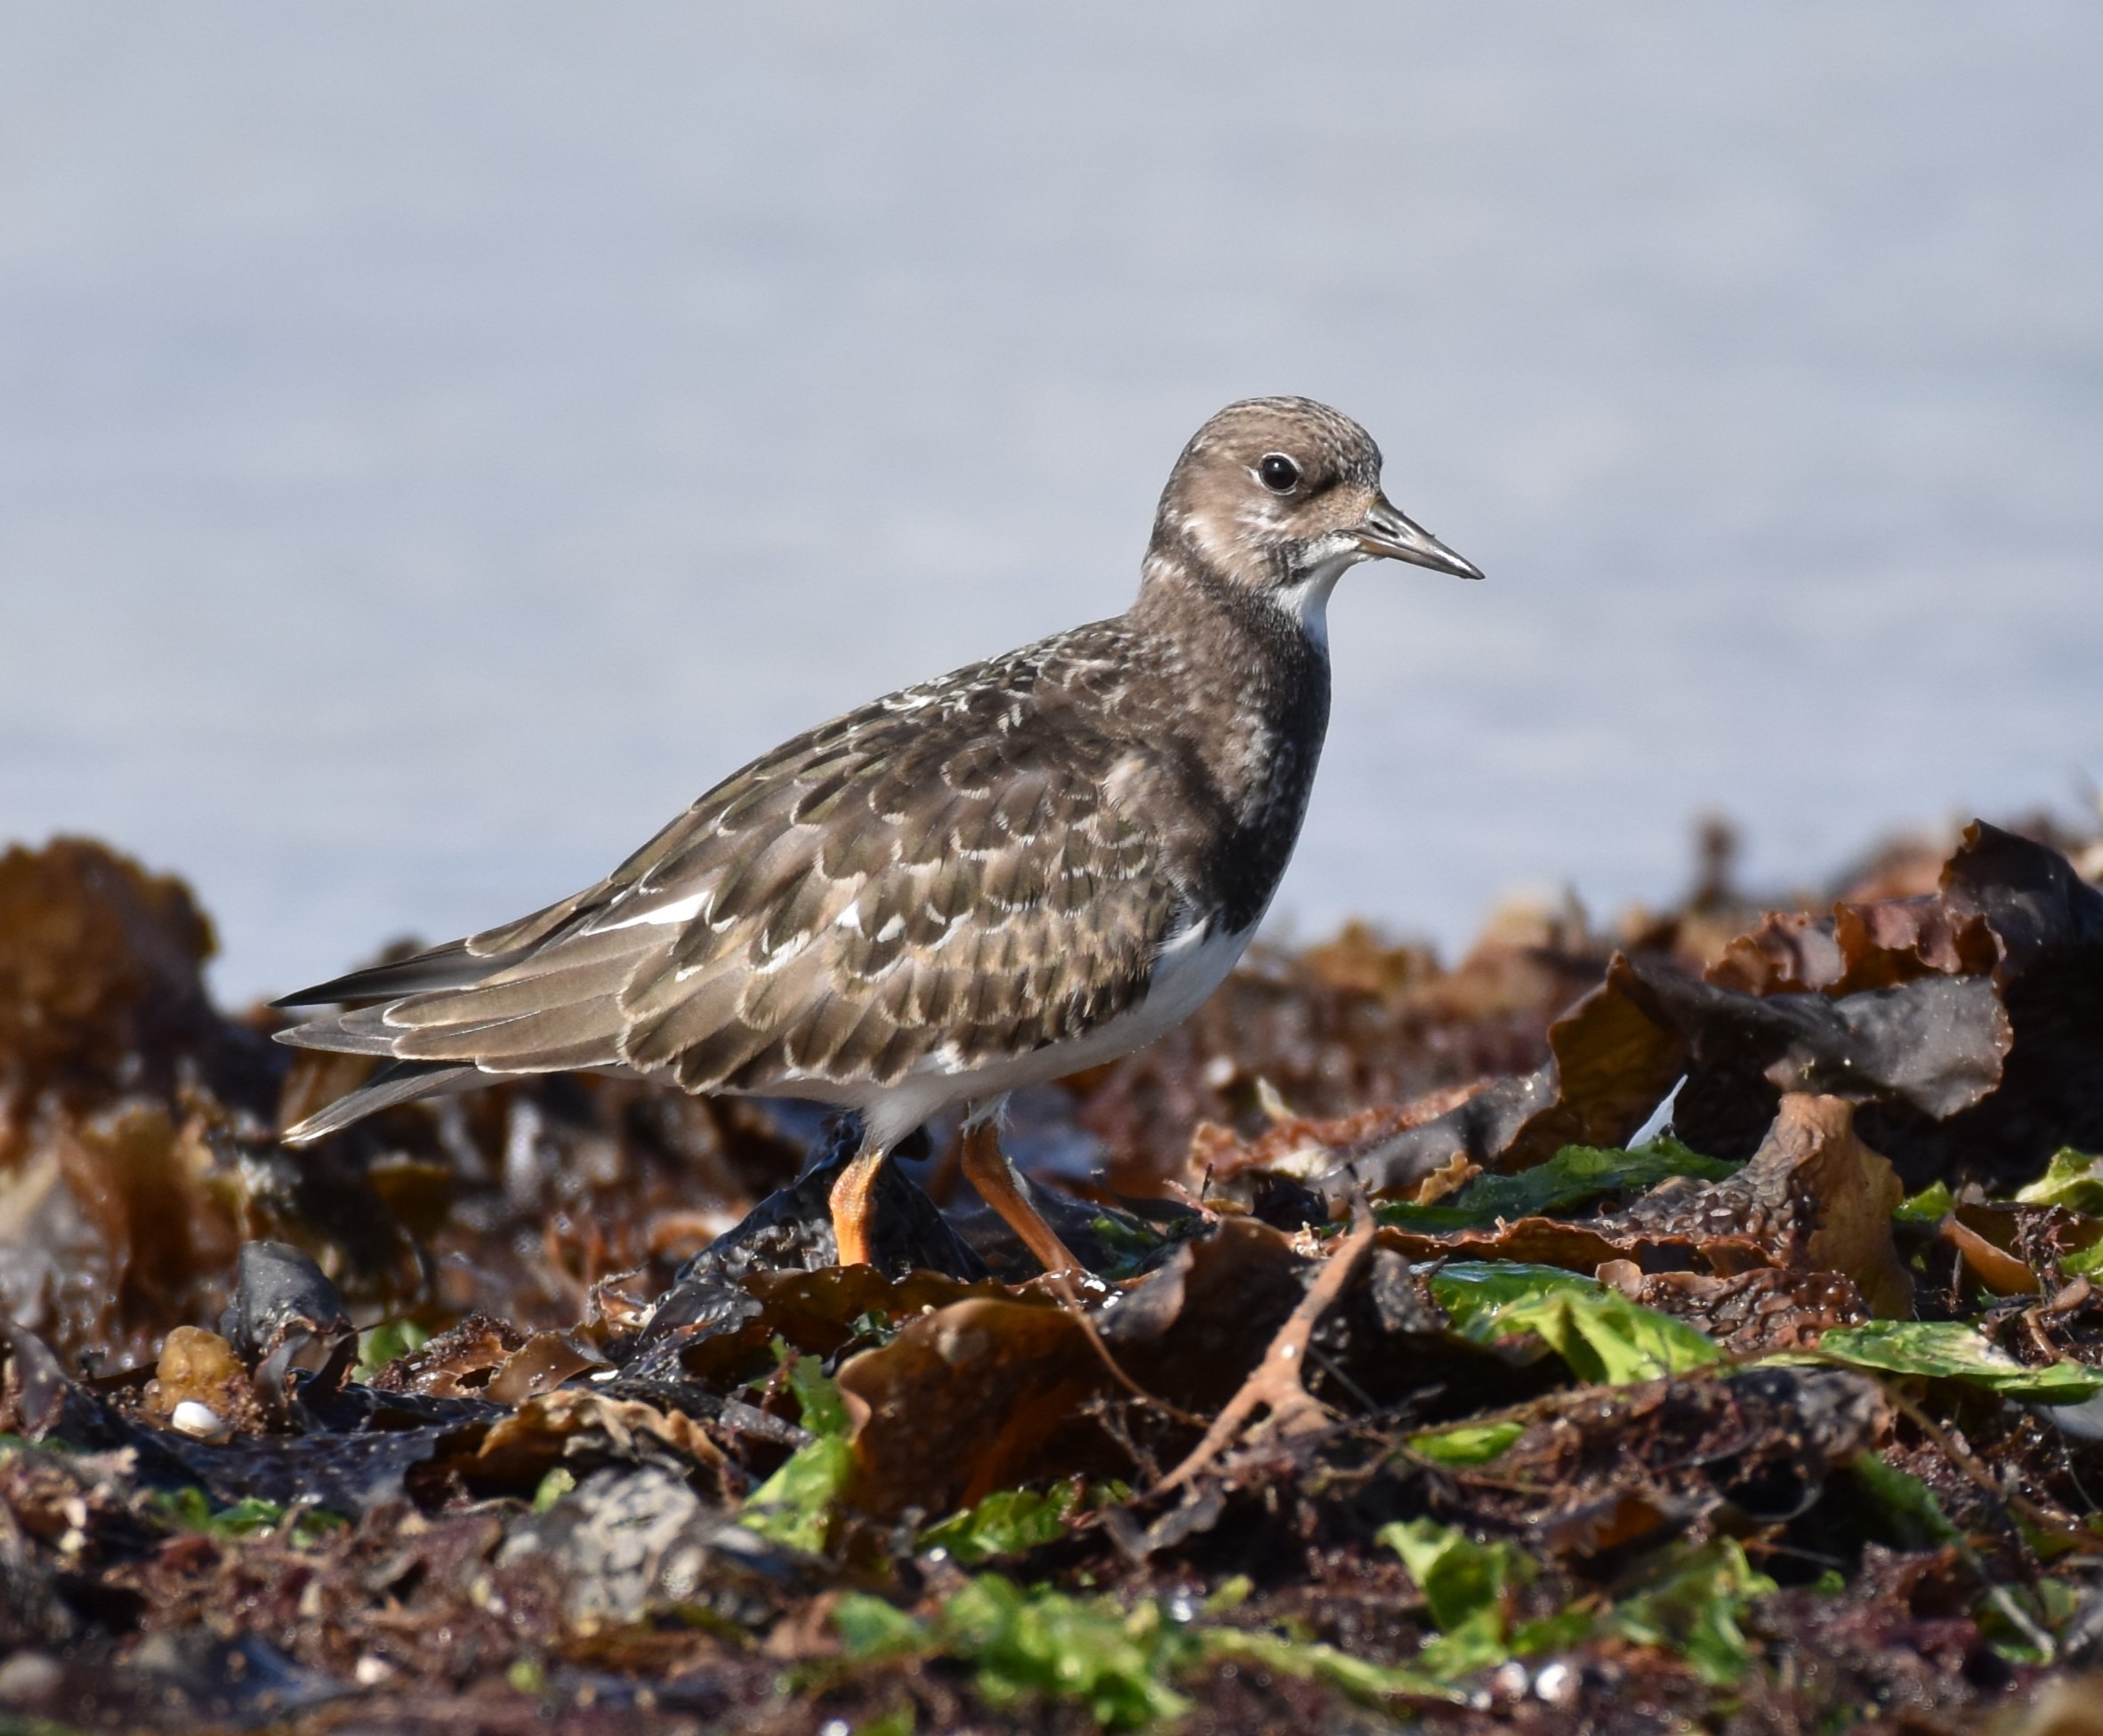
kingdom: Animalia
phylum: Chordata
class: Aves
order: Charadriiformes
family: Scolopacidae
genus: Arenaria
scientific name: Arenaria interpres
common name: Stenvender
